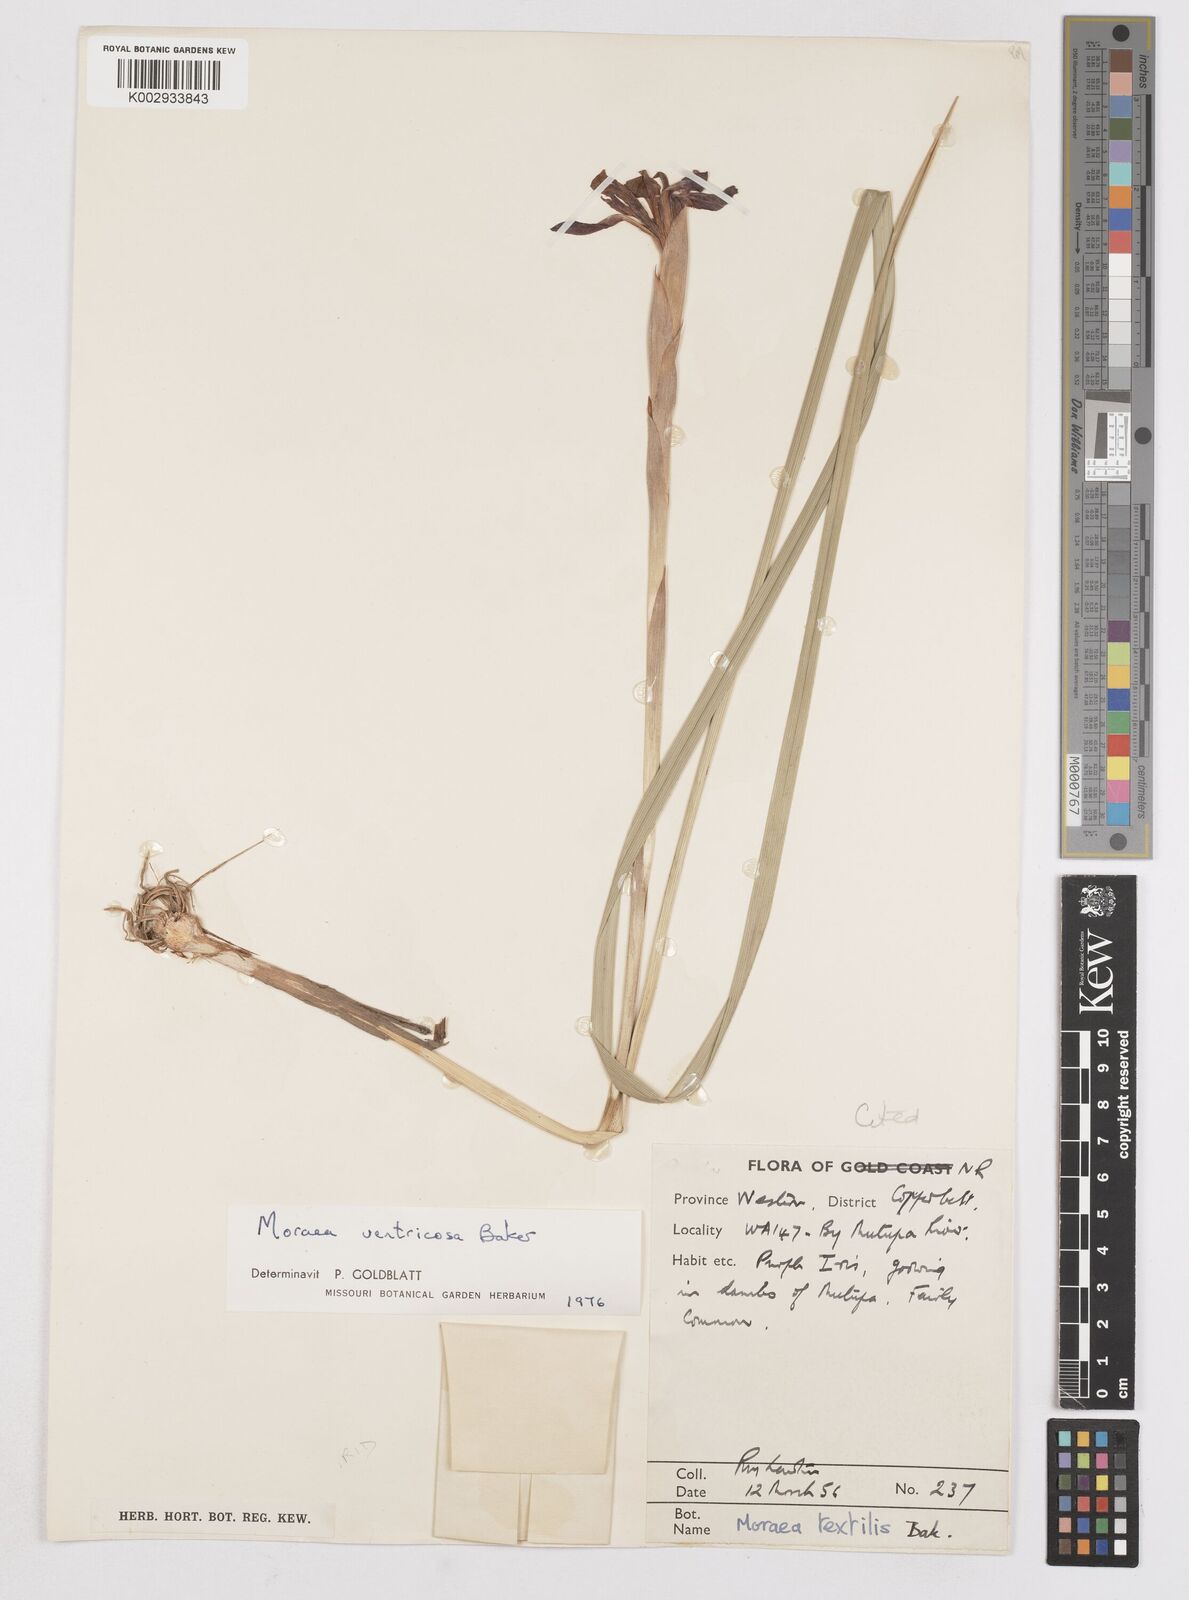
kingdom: Plantae
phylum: Tracheophyta
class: Liliopsida
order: Asparagales
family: Iridaceae
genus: Moraea
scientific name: Moraea ventricosa
